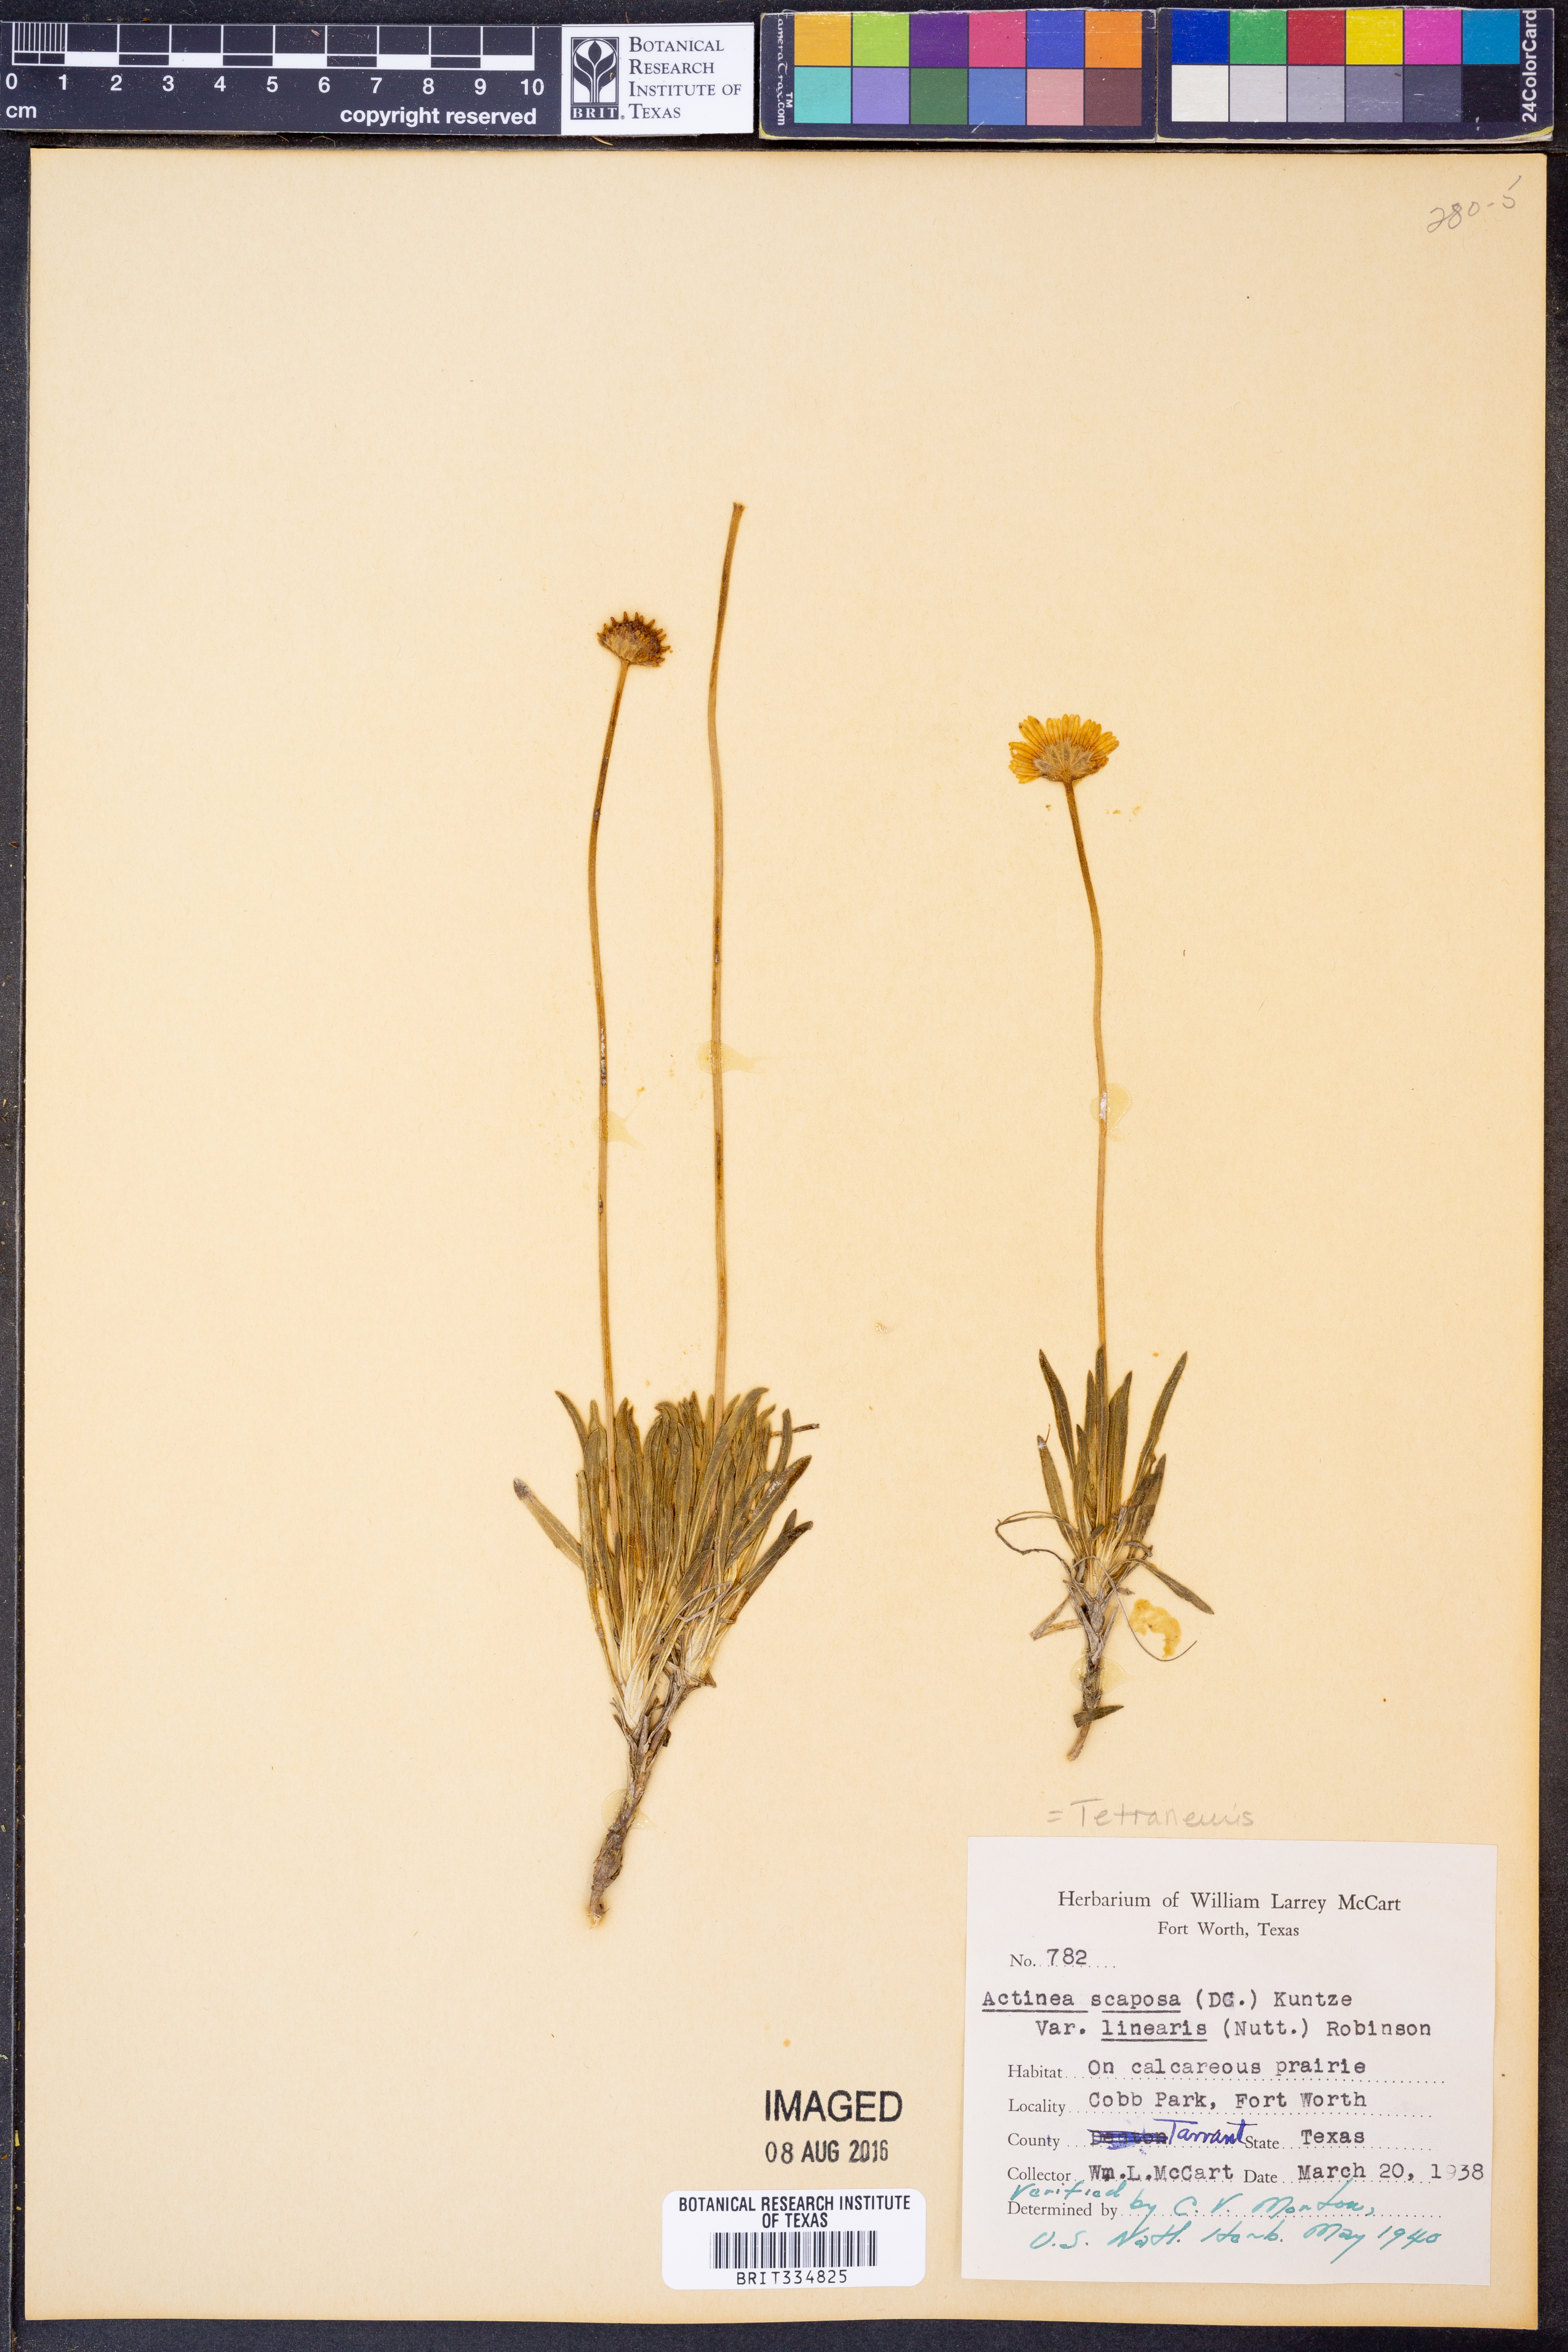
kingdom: Plantae
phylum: Tracheophyta
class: Magnoliopsida
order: Asterales
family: Asteraceae
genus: Tetraneuris
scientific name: Tetraneuris scaposa
